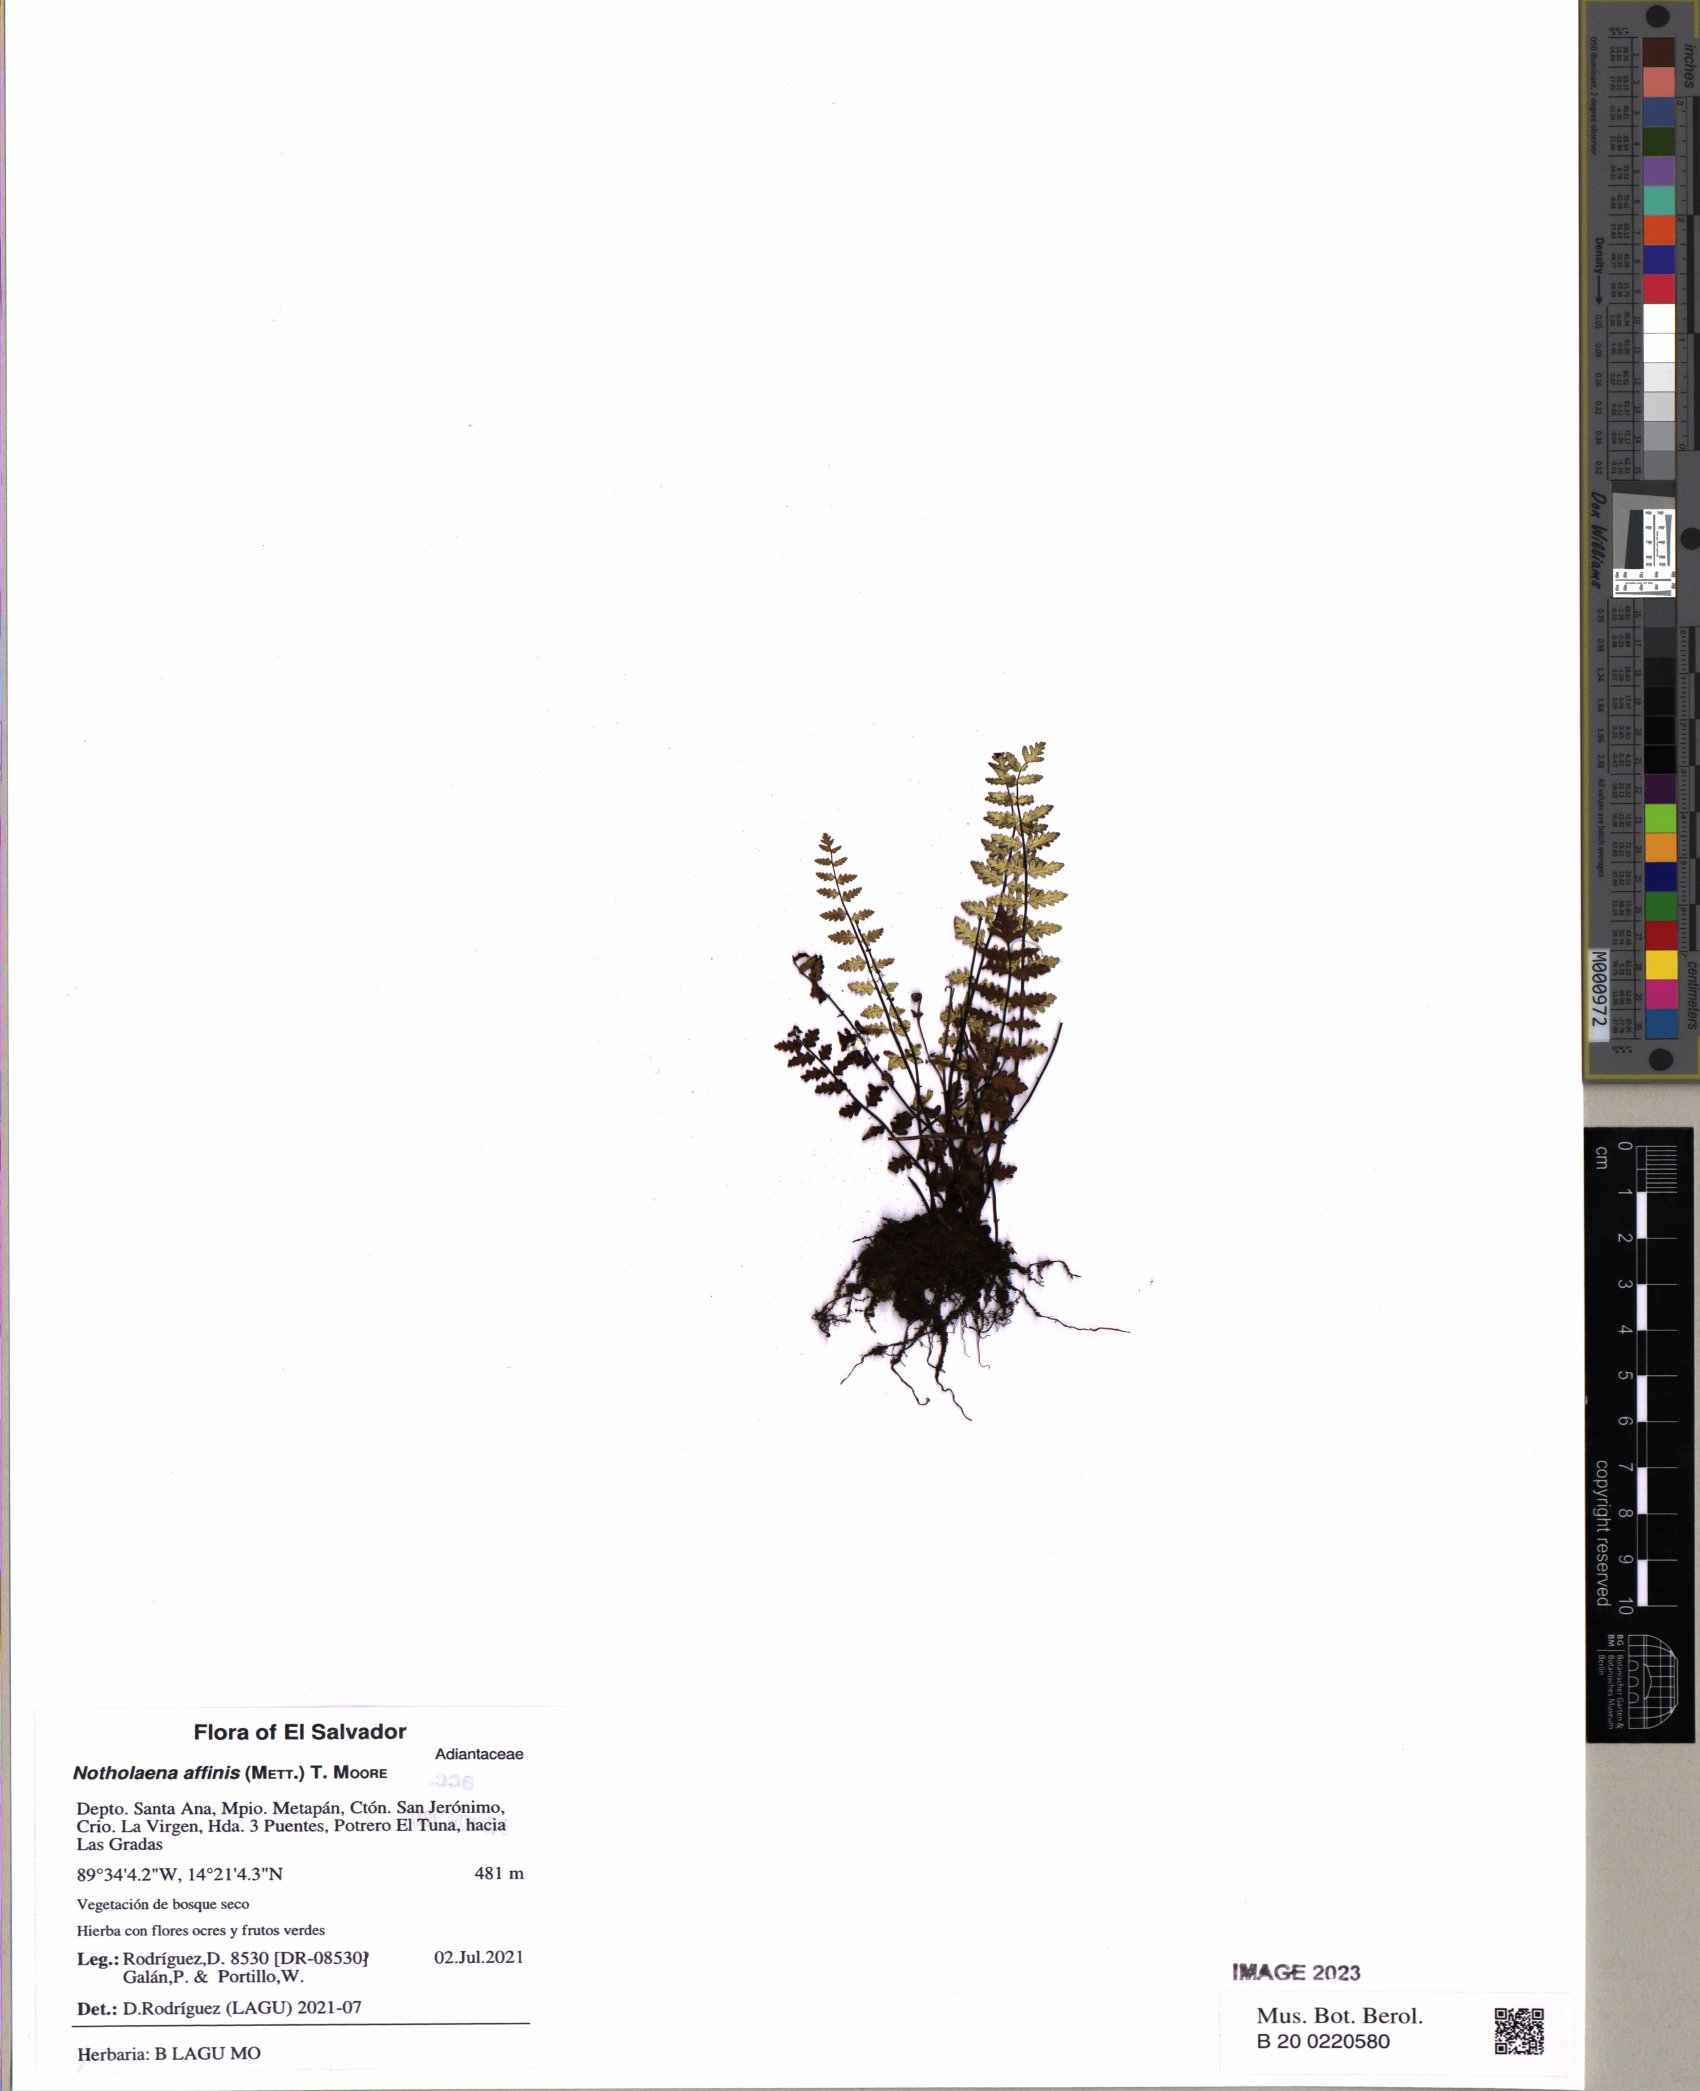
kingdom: Plantae
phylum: Tracheophyta
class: Polypodiopsida
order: Polypodiales
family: Pteridaceae
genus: Notholaena
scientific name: Notholaena affinis
